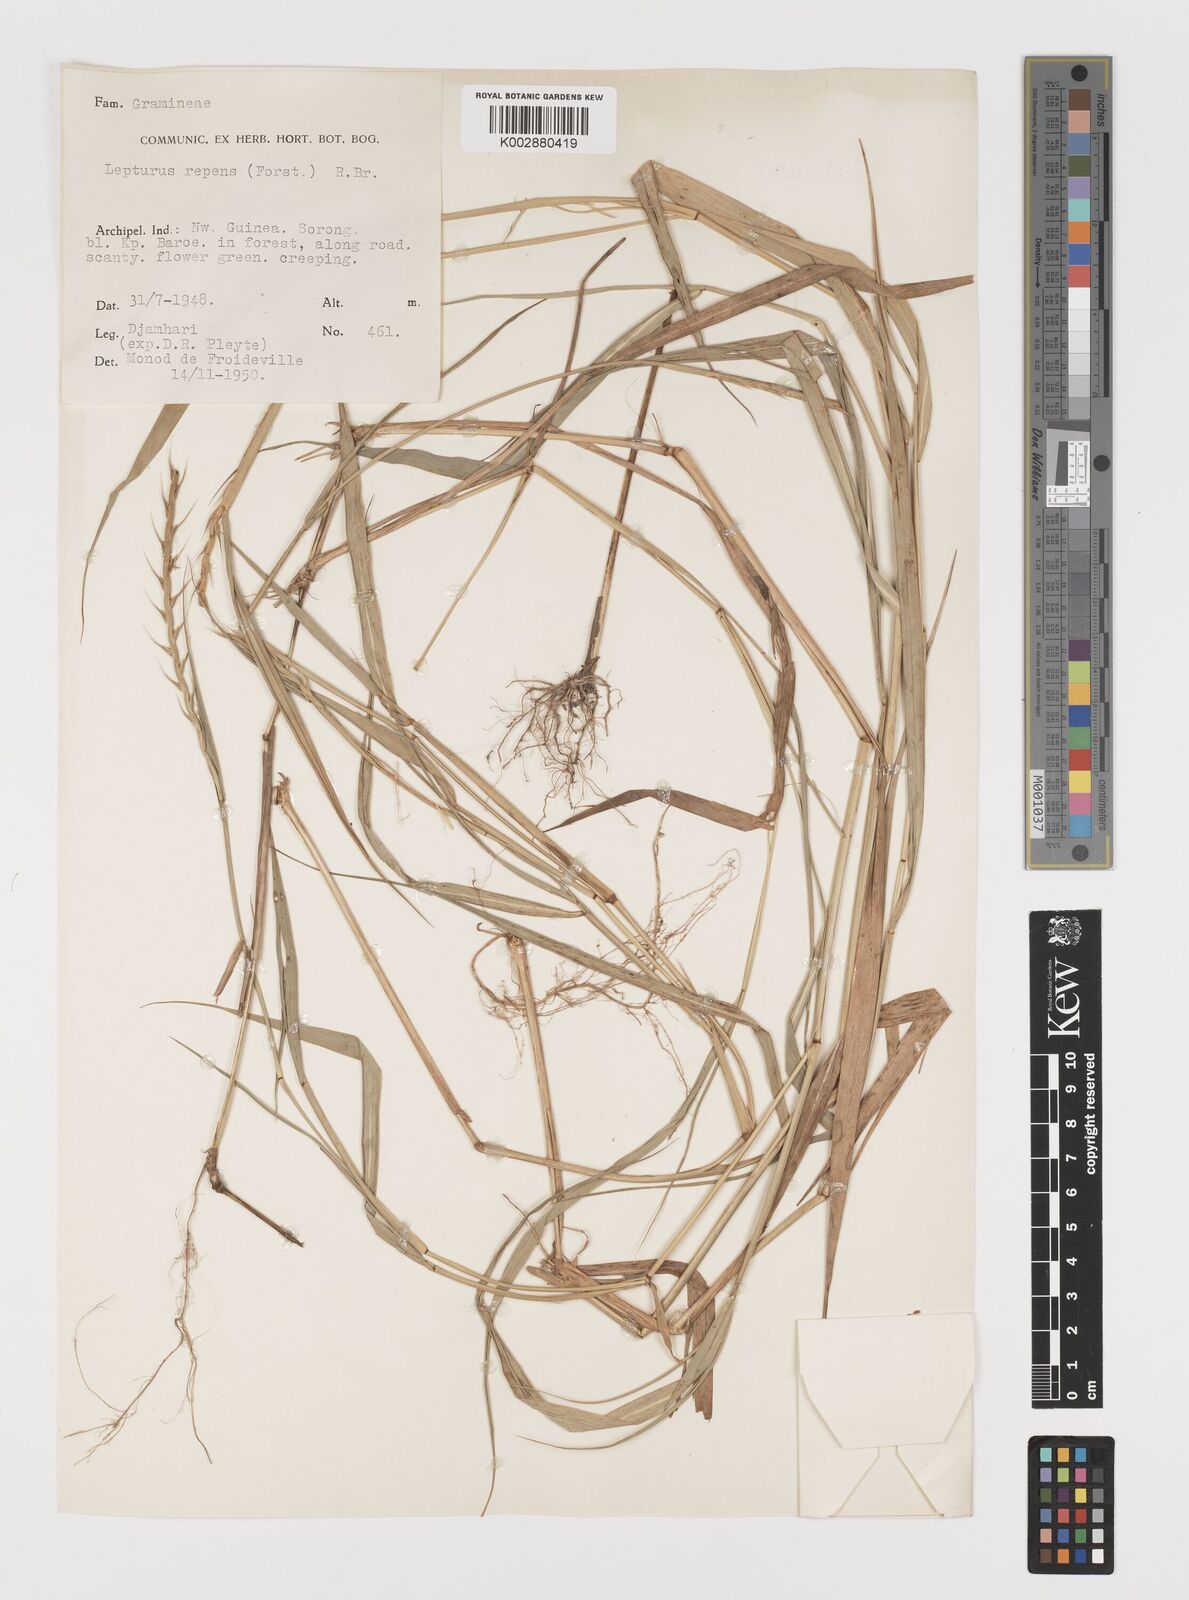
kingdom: Plantae
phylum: Tracheophyta
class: Liliopsida
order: Poales
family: Poaceae
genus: Lepturus
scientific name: Lepturus repens
